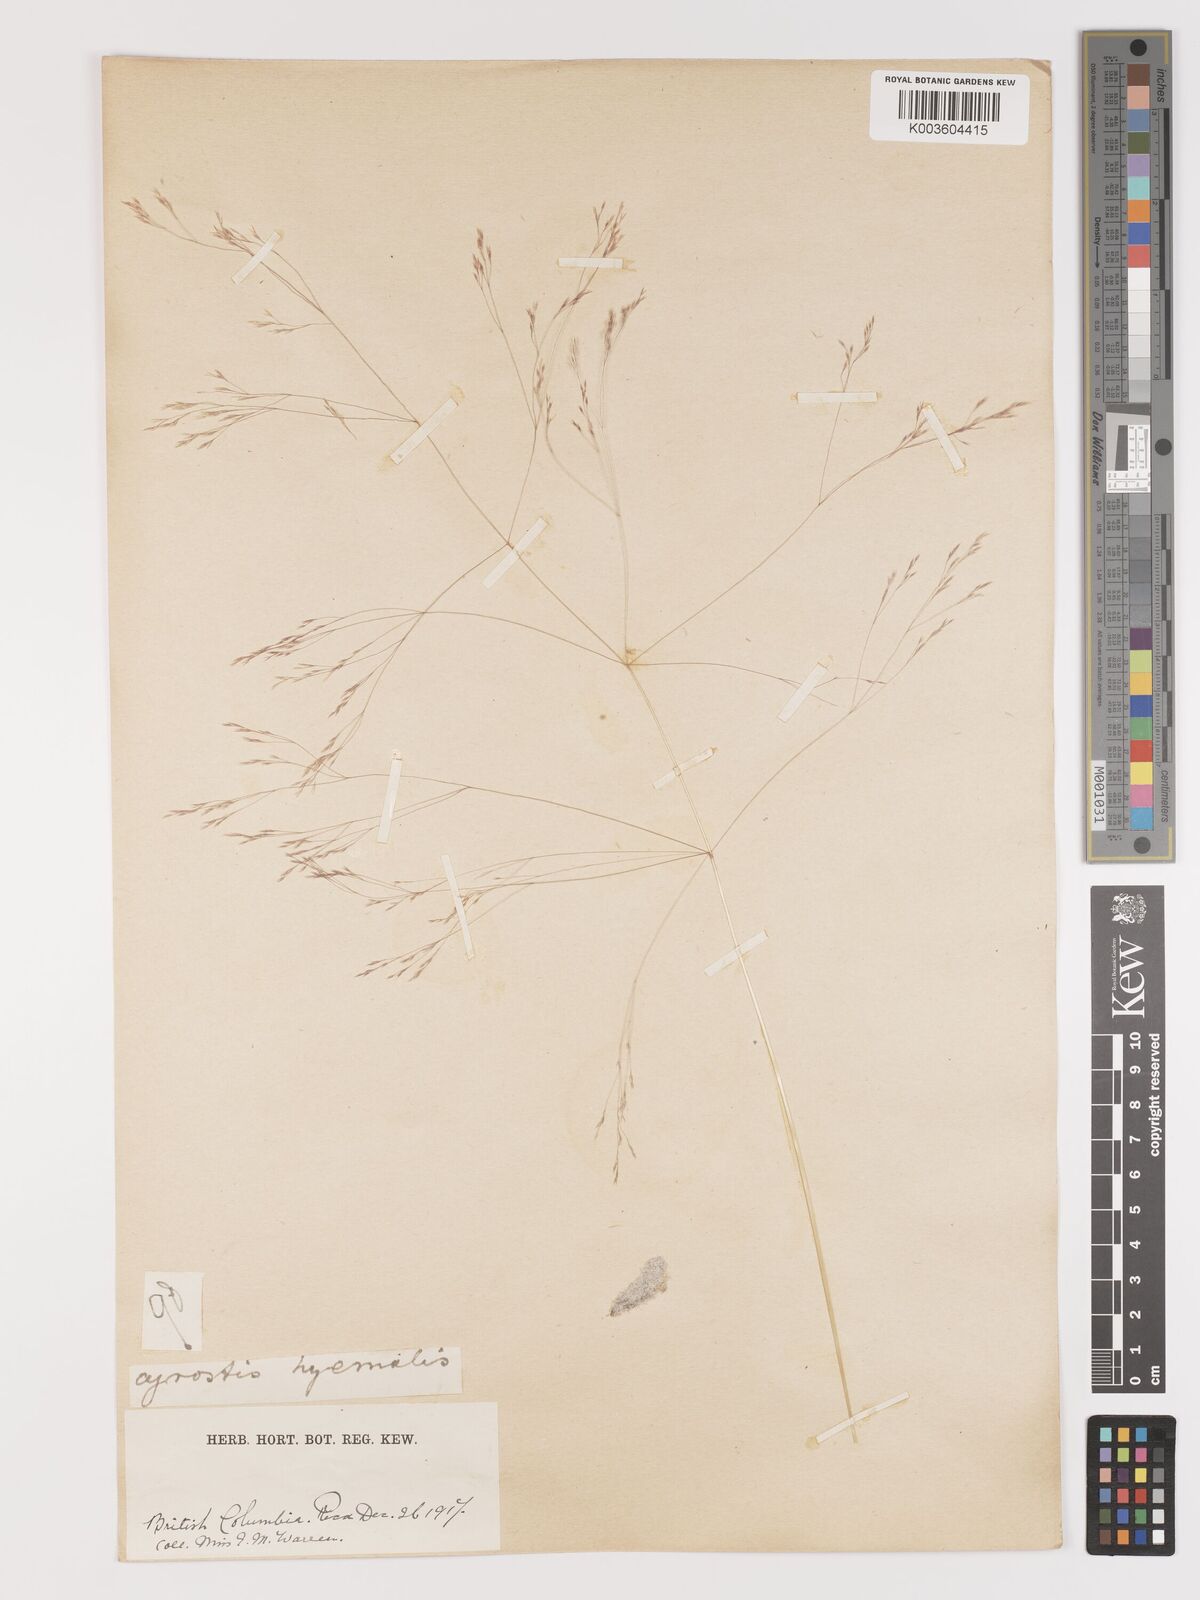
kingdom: Plantae
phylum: Tracheophyta
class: Liliopsida
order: Poales
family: Poaceae
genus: Agrostis
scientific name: Agrostis hyemalis
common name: Small bent
